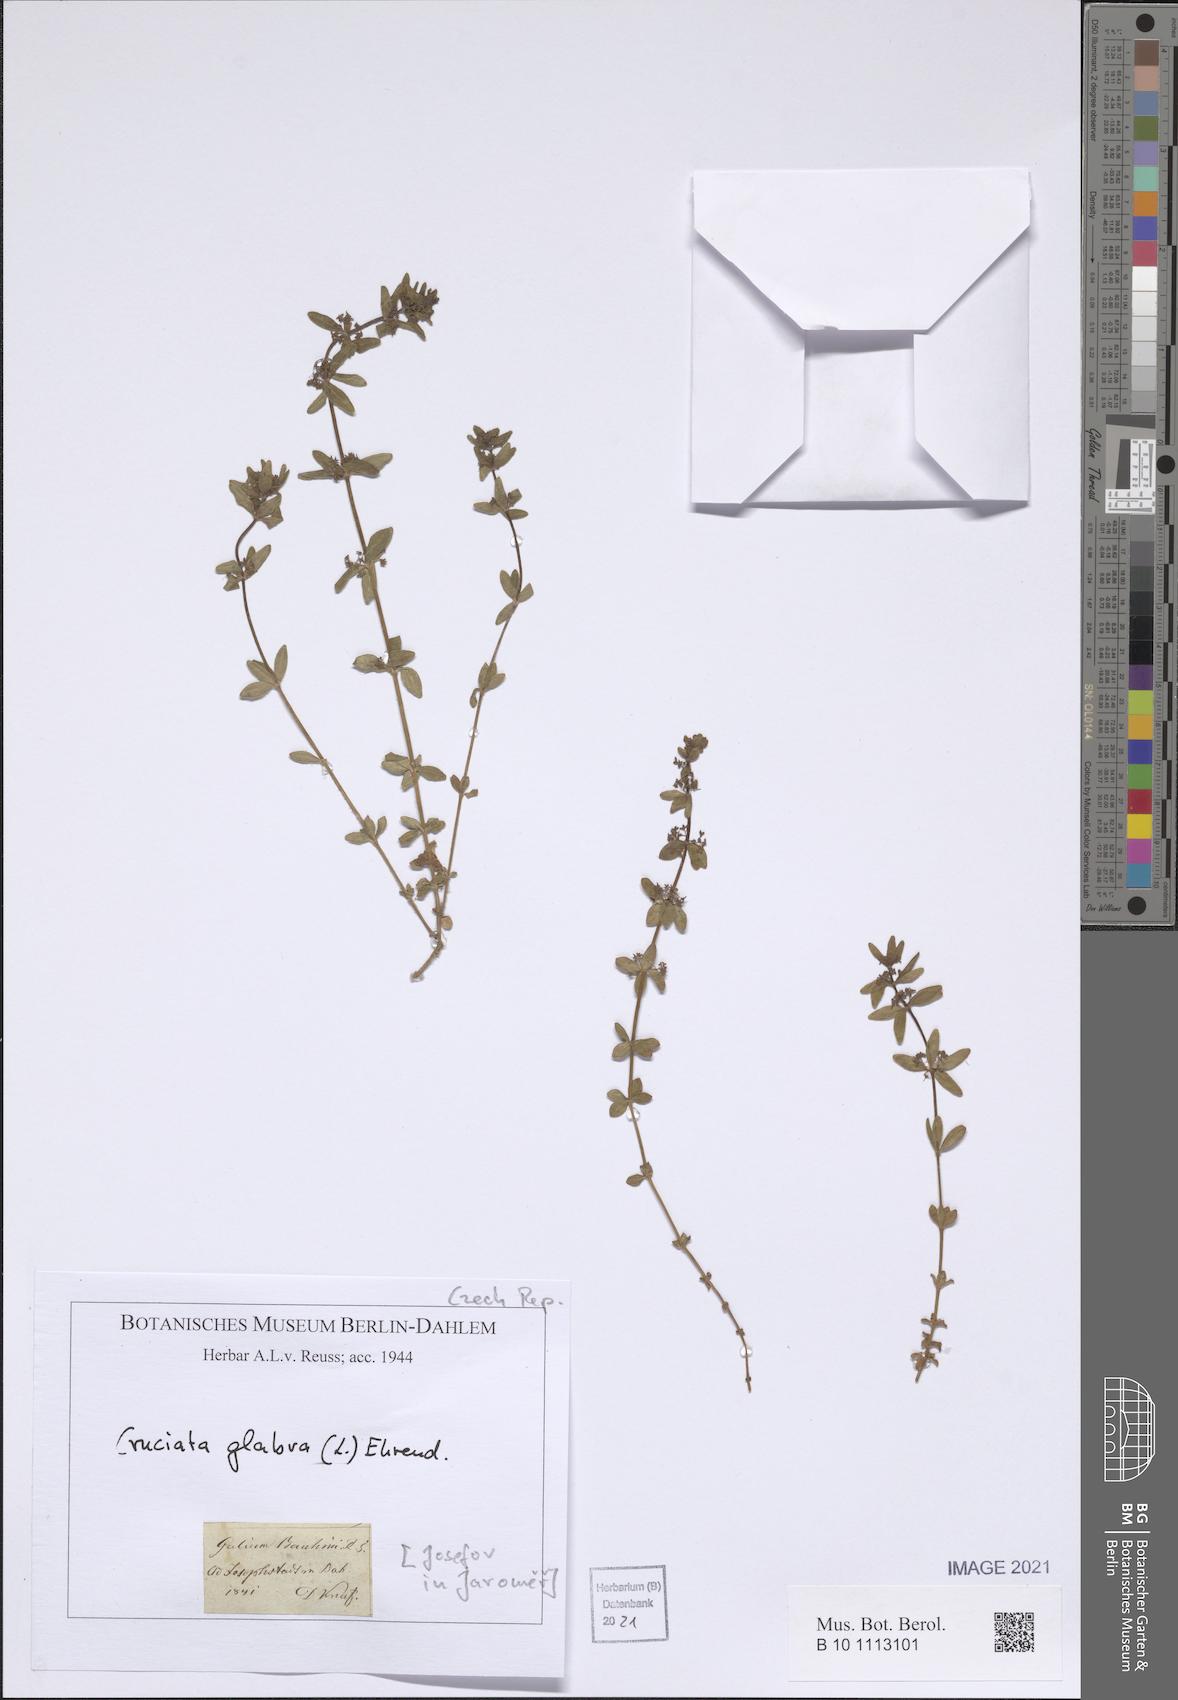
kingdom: Plantae
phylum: Tracheophyta
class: Magnoliopsida
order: Gentianales
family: Rubiaceae
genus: Cruciata
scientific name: Cruciata glabra
